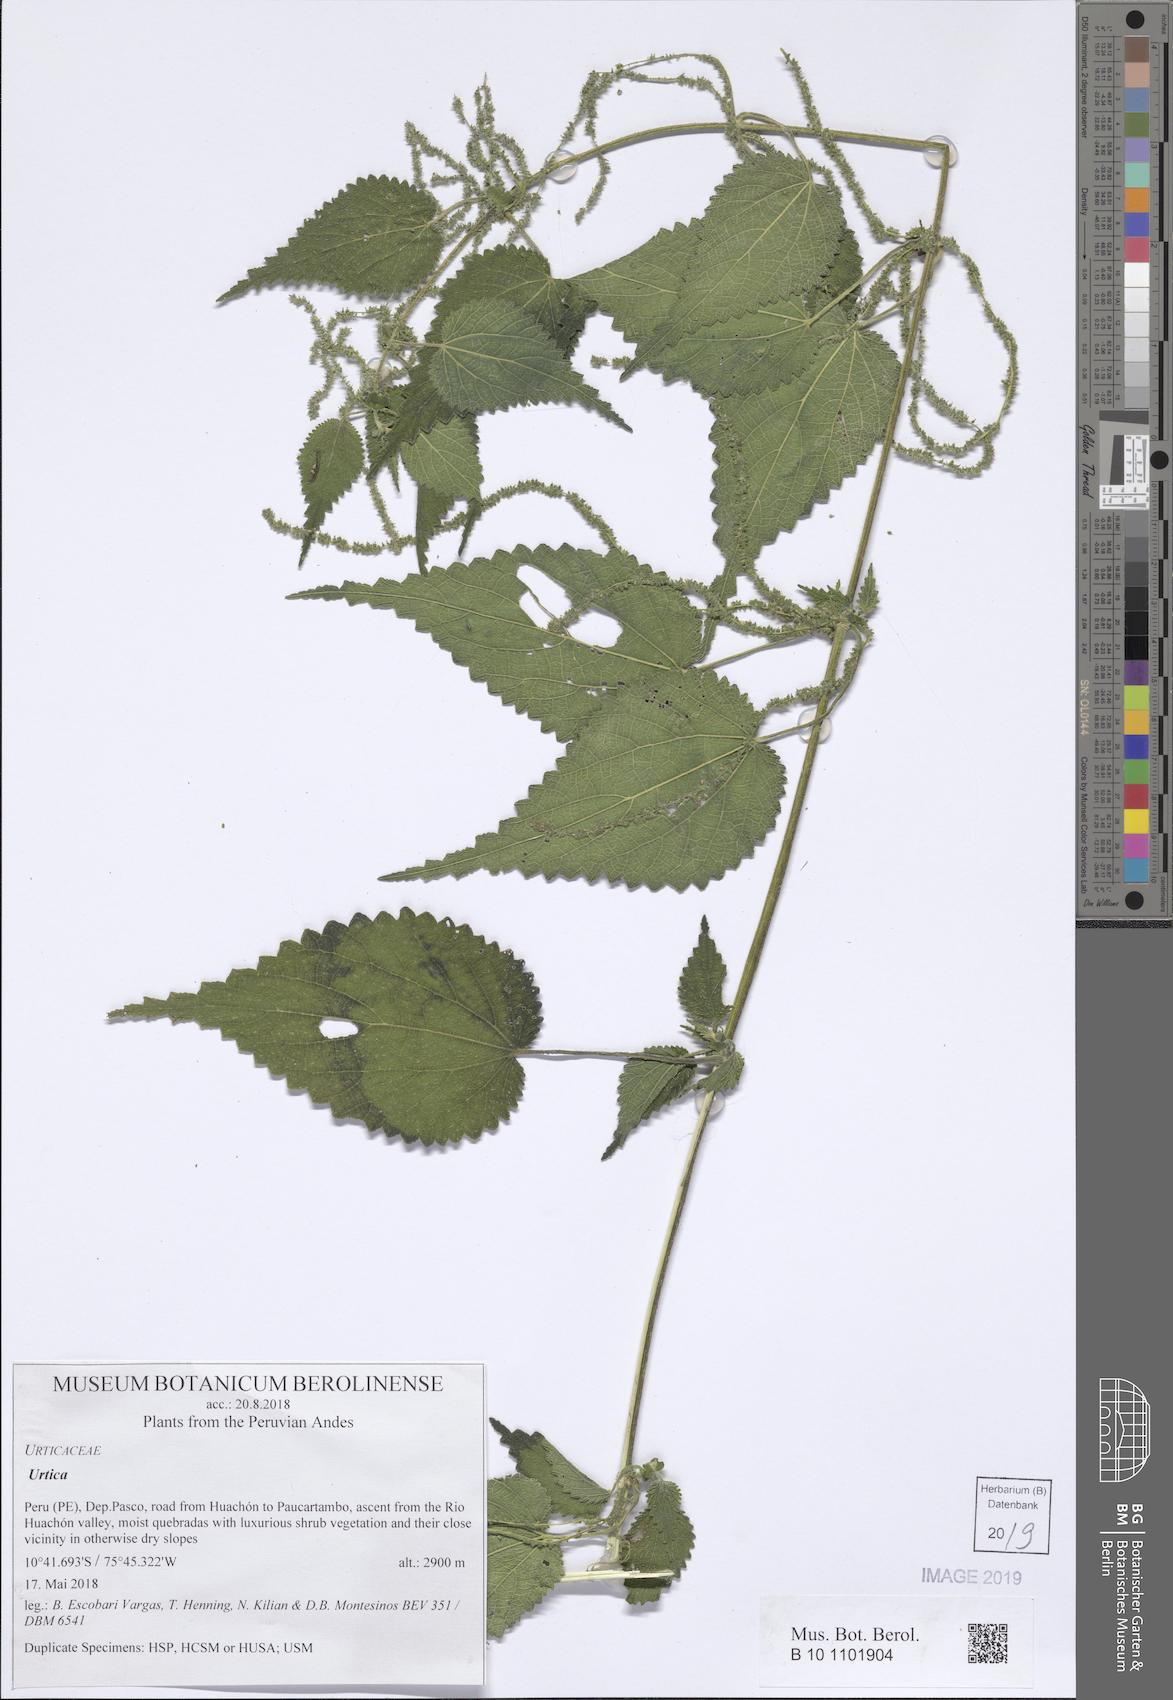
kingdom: Plantae
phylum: Tracheophyta
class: Magnoliopsida
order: Rosales
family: Urticaceae
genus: Urtica
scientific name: Urtica urentivelutina
